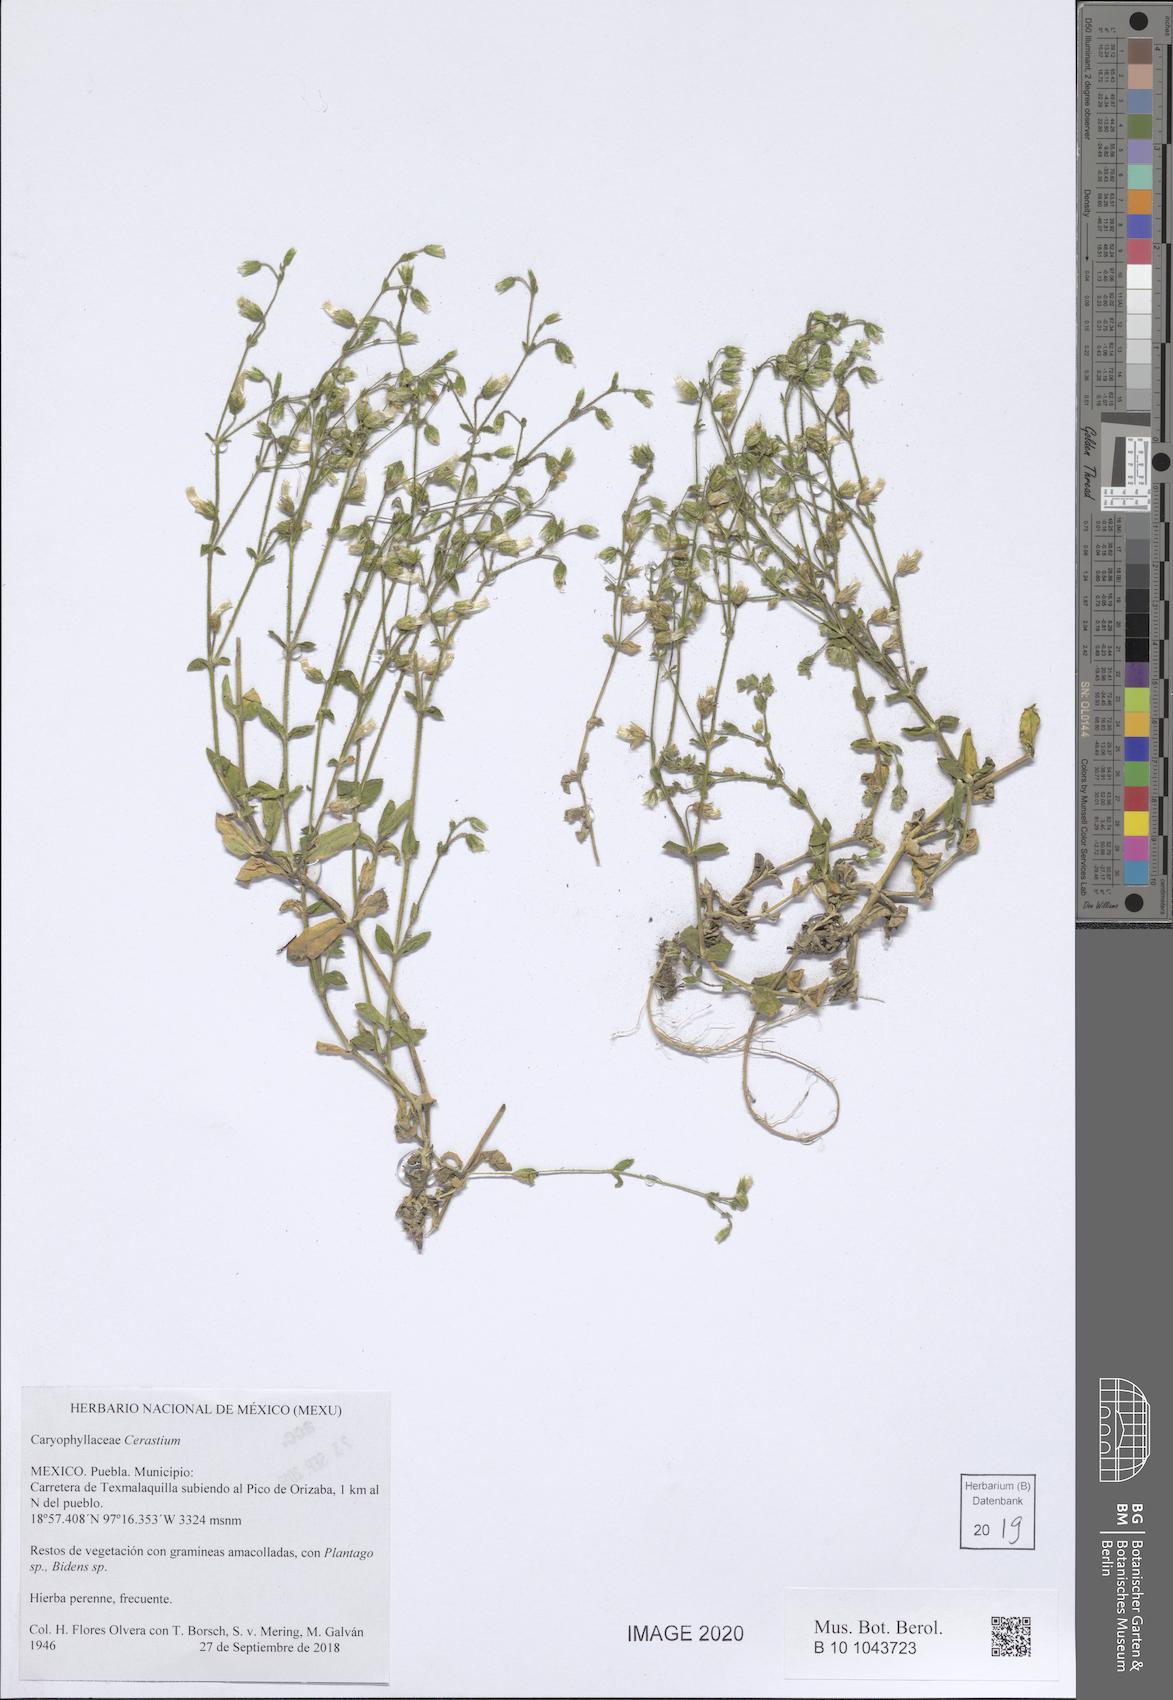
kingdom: Plantae
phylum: Tracheophyta
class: Magnoliopsida
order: Caryophyllales
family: Caryophyllaceae
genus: Cerastium
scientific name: Cerastium
